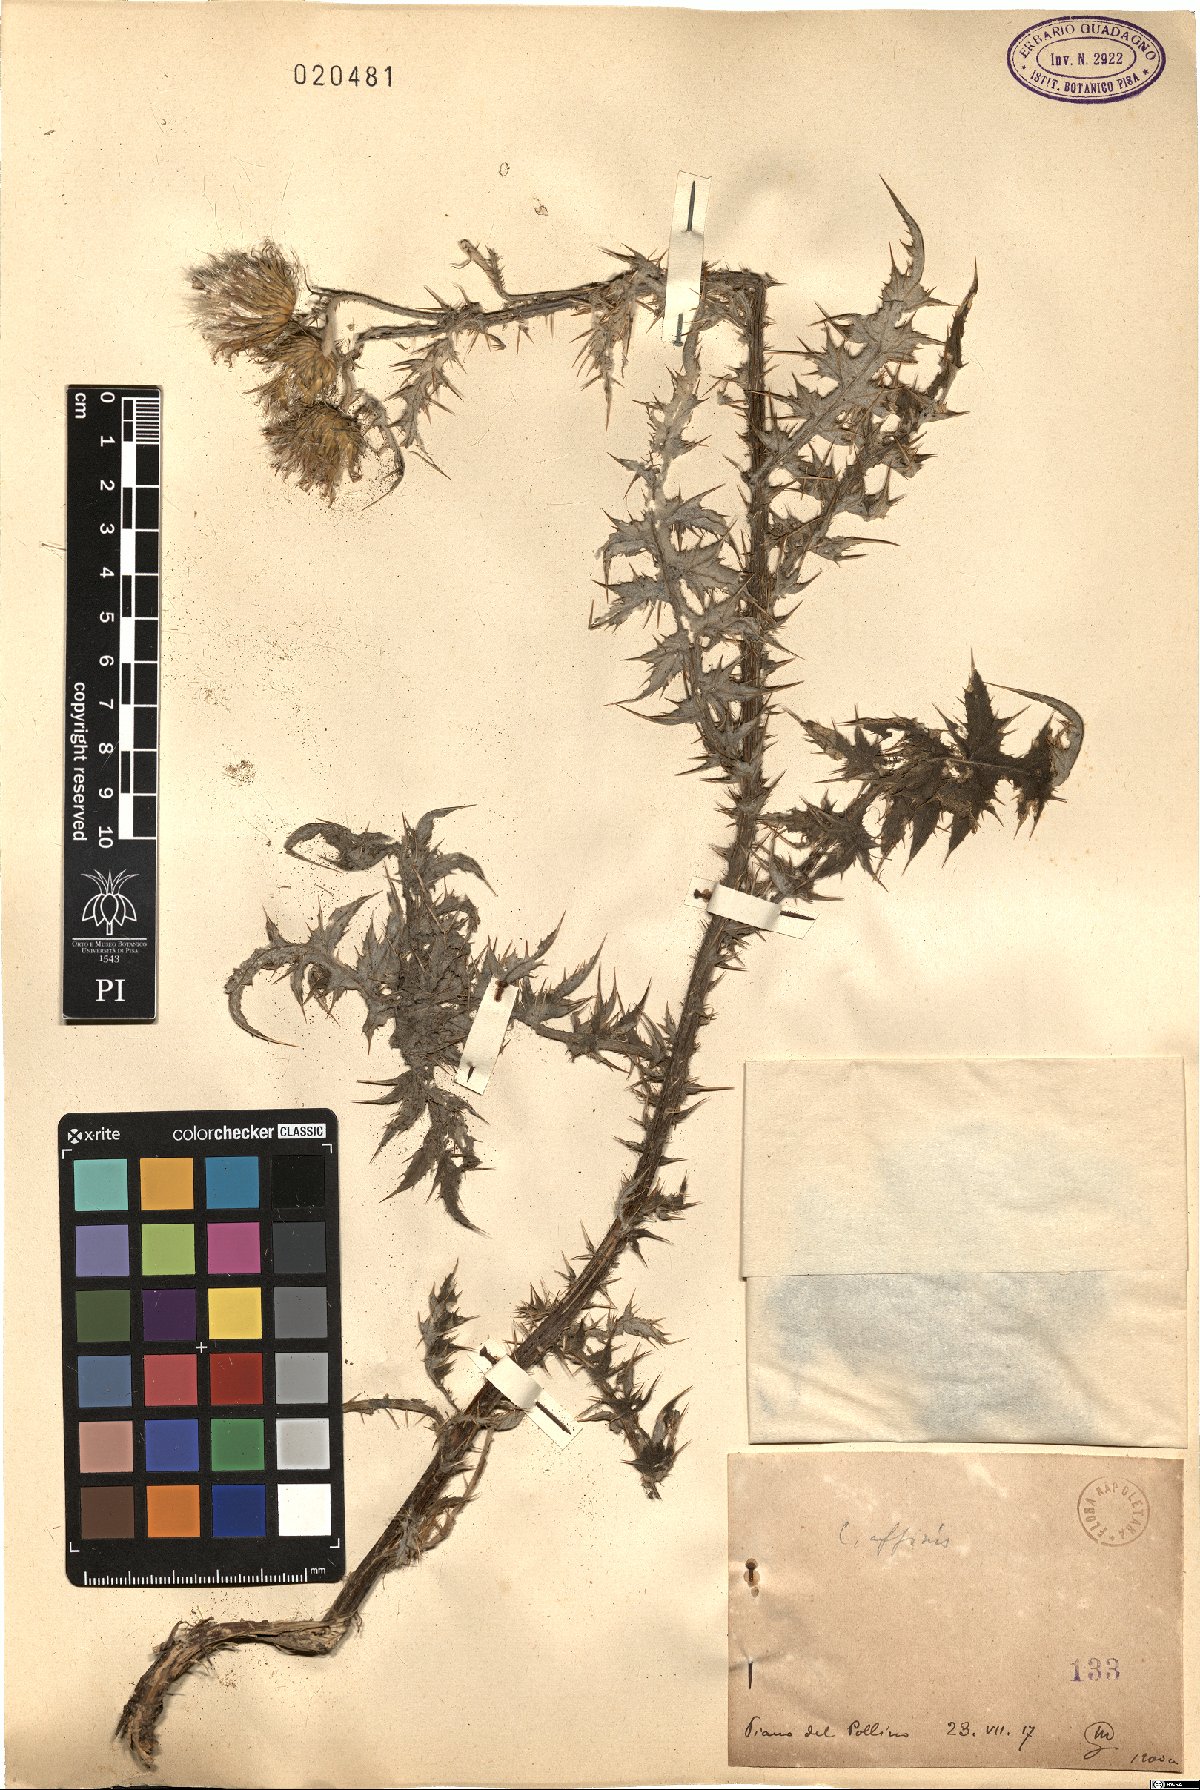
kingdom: Plantae
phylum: Tracheophyta
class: Magnoliopsida
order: Asterales
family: Asteraceae
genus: Carduus
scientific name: Carduus affinis
